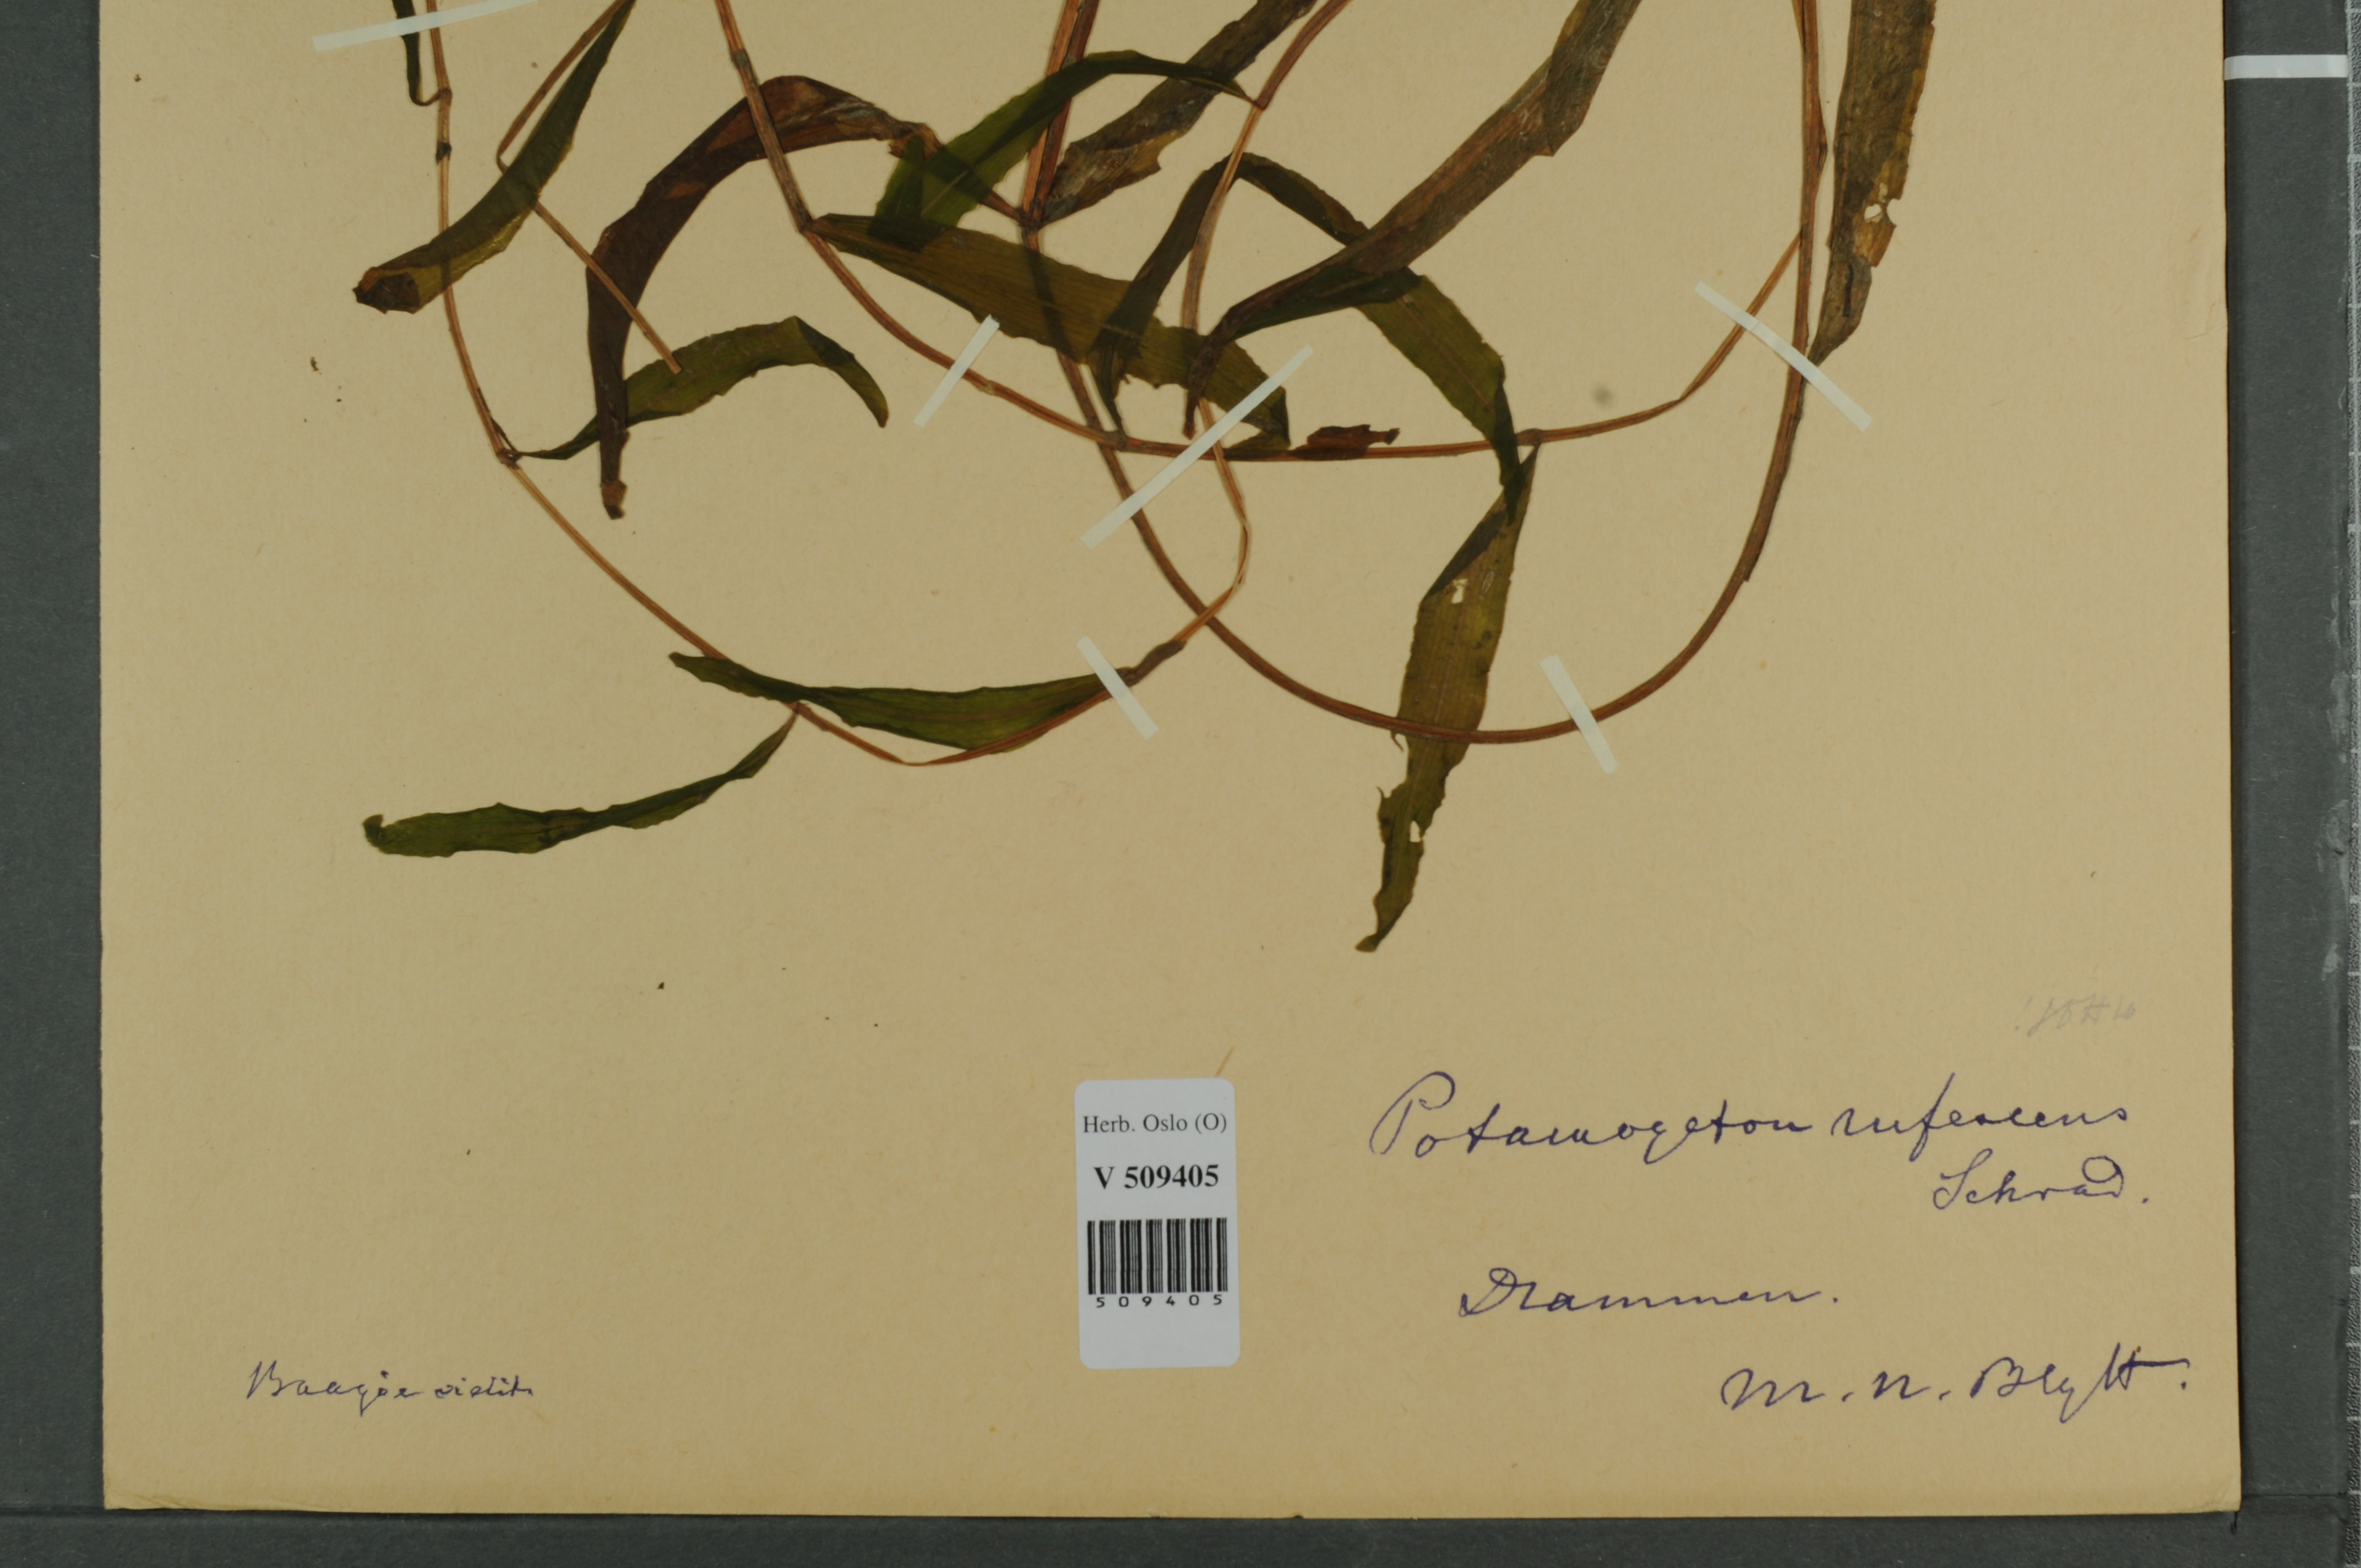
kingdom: Plantae
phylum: Tracheophyta
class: Liliopsida
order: Alismatales
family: Potamogetonaceae
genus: Potamogeton
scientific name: Potamogeton alpinus
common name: Red pondweed
